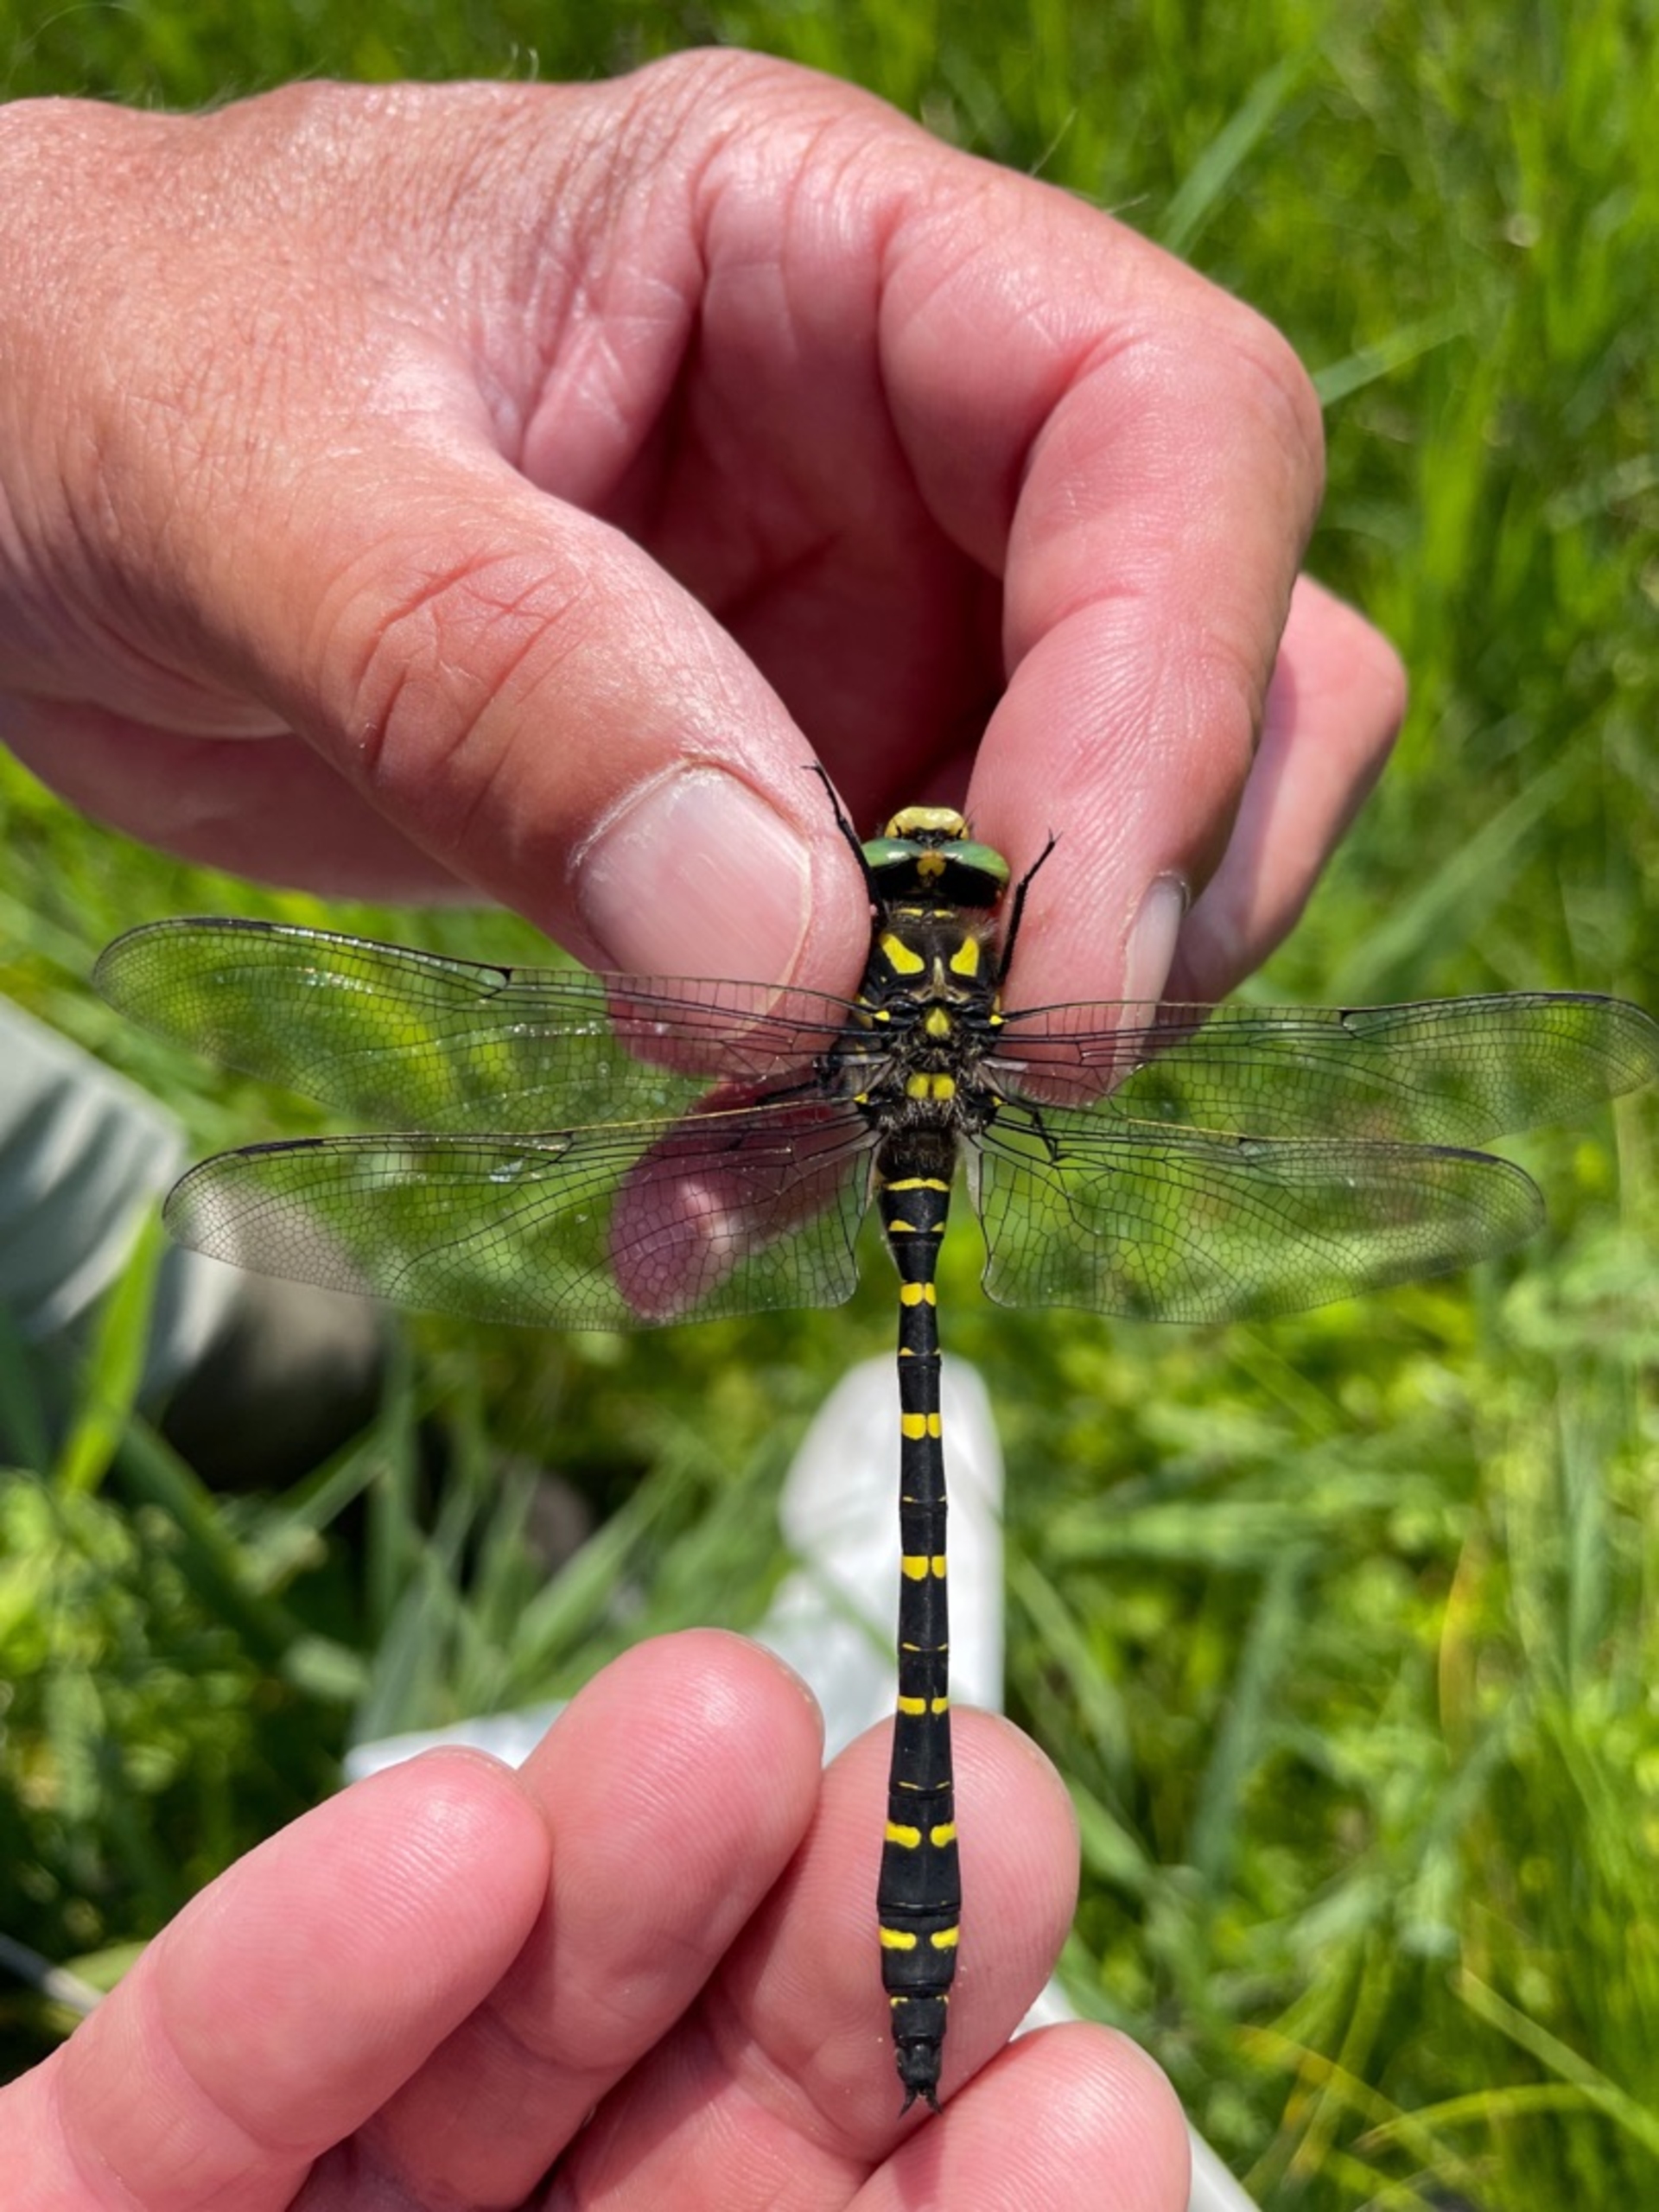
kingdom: Animalia
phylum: Arthropoda
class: Insecta
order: Odonata
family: Cordulegastridae
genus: Cordulegaster
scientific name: Cordulegaster boltonii
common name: Kongeguldsmed
